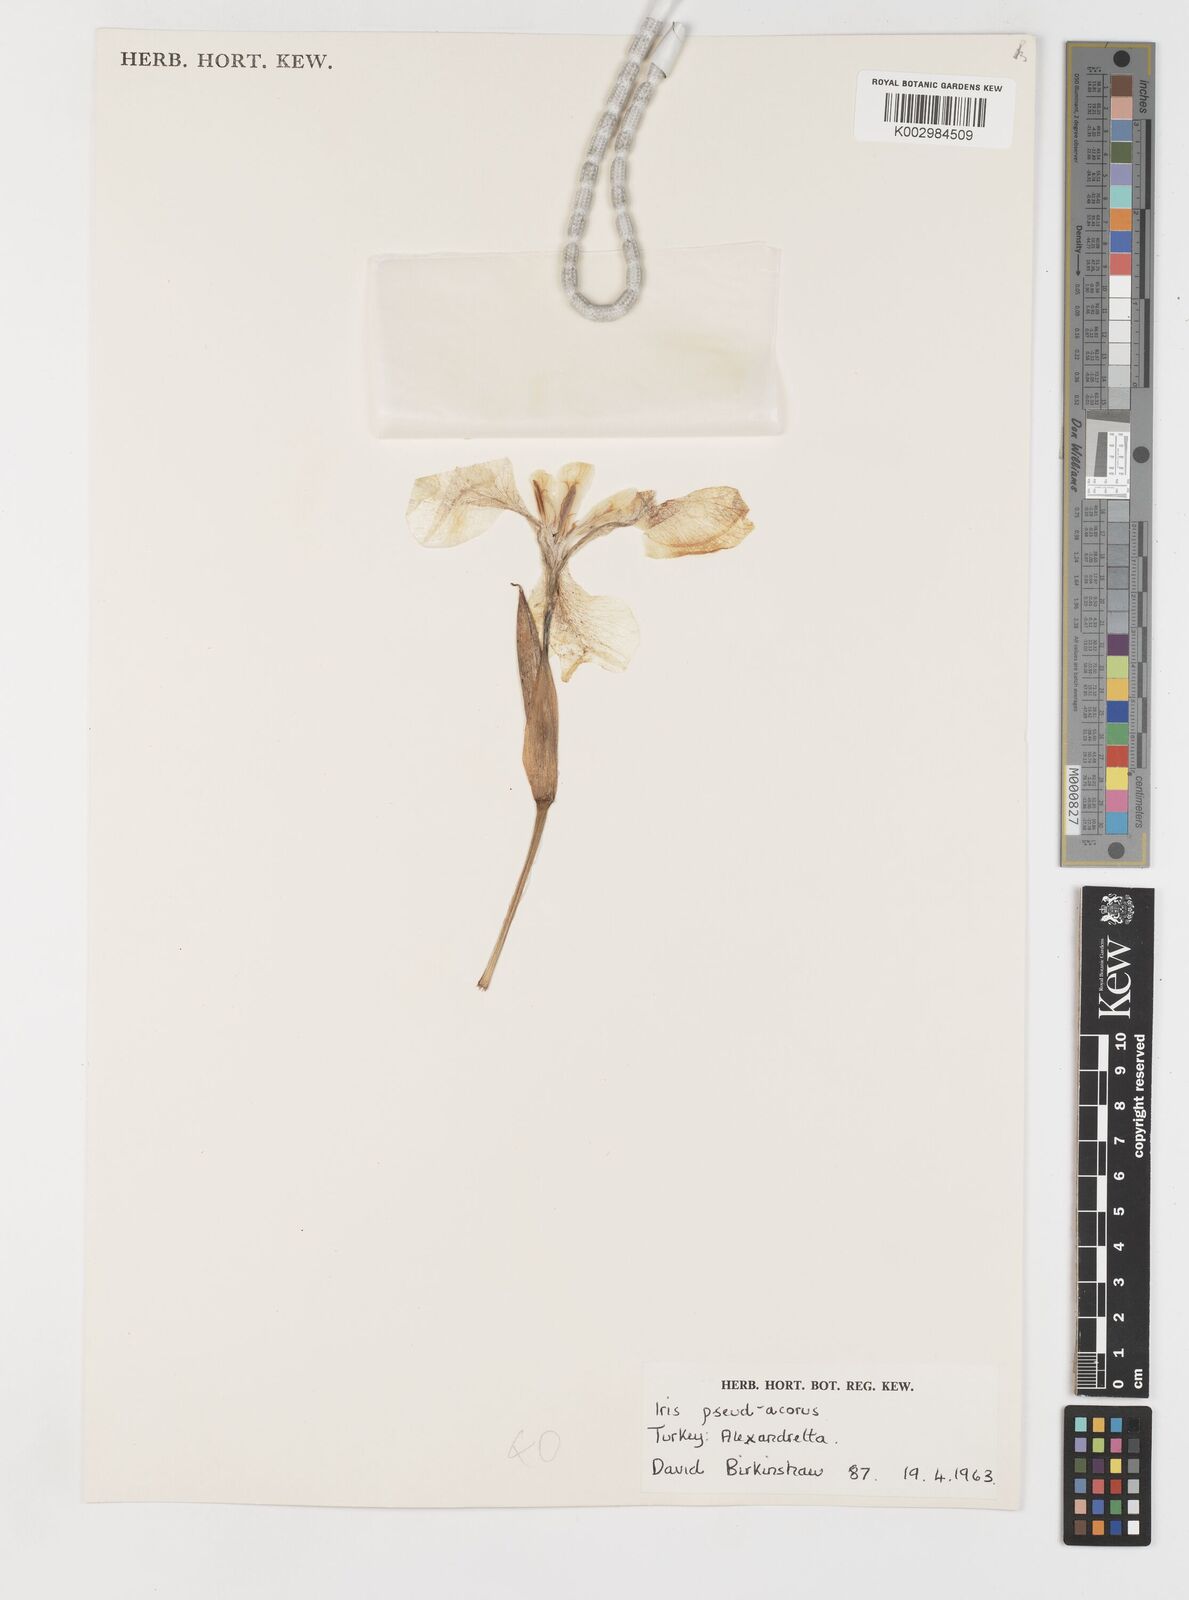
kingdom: Plantae
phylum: Tracheophyta
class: Liliopsida
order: Asparagales
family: Iridaceae
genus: Iris
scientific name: Iris pseudacorus
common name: Yellow flag
